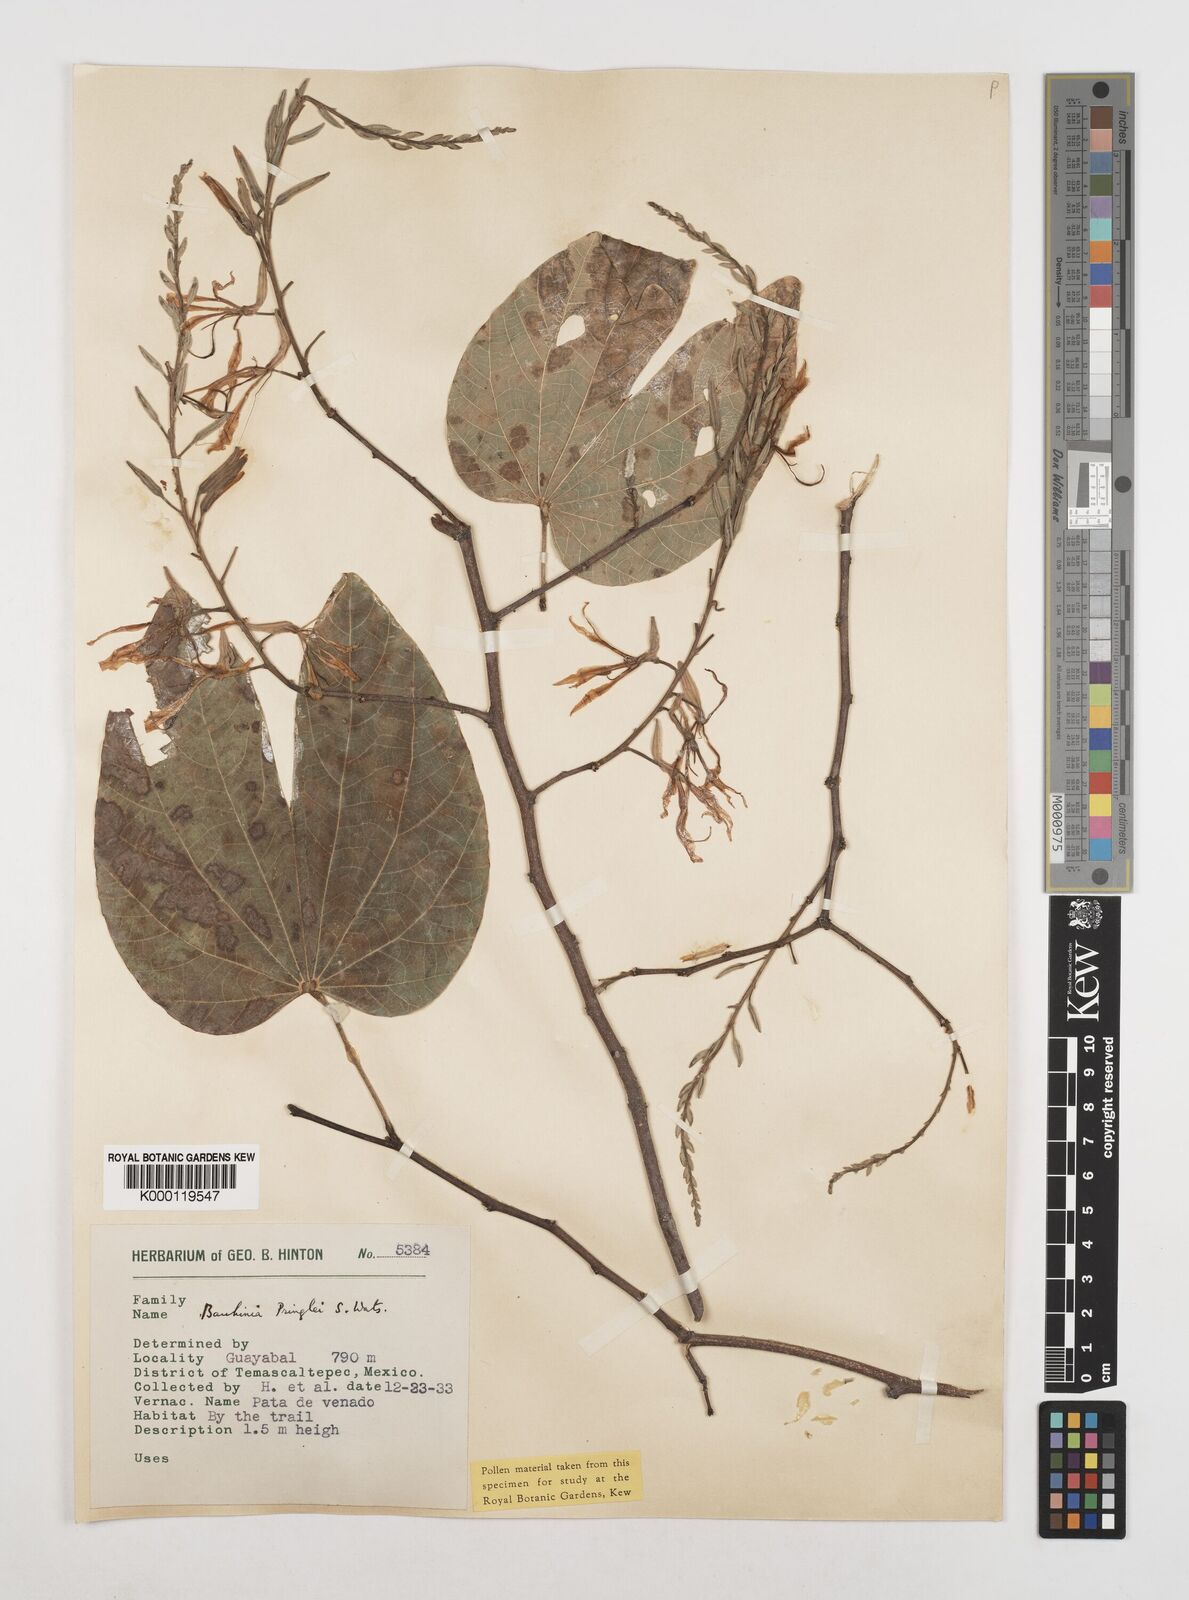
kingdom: Plantae
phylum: Tracheophyta
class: Magnoliopsida
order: Fabales
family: Fabaceae
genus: Bauhinia
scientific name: Bauhinia pringlei
